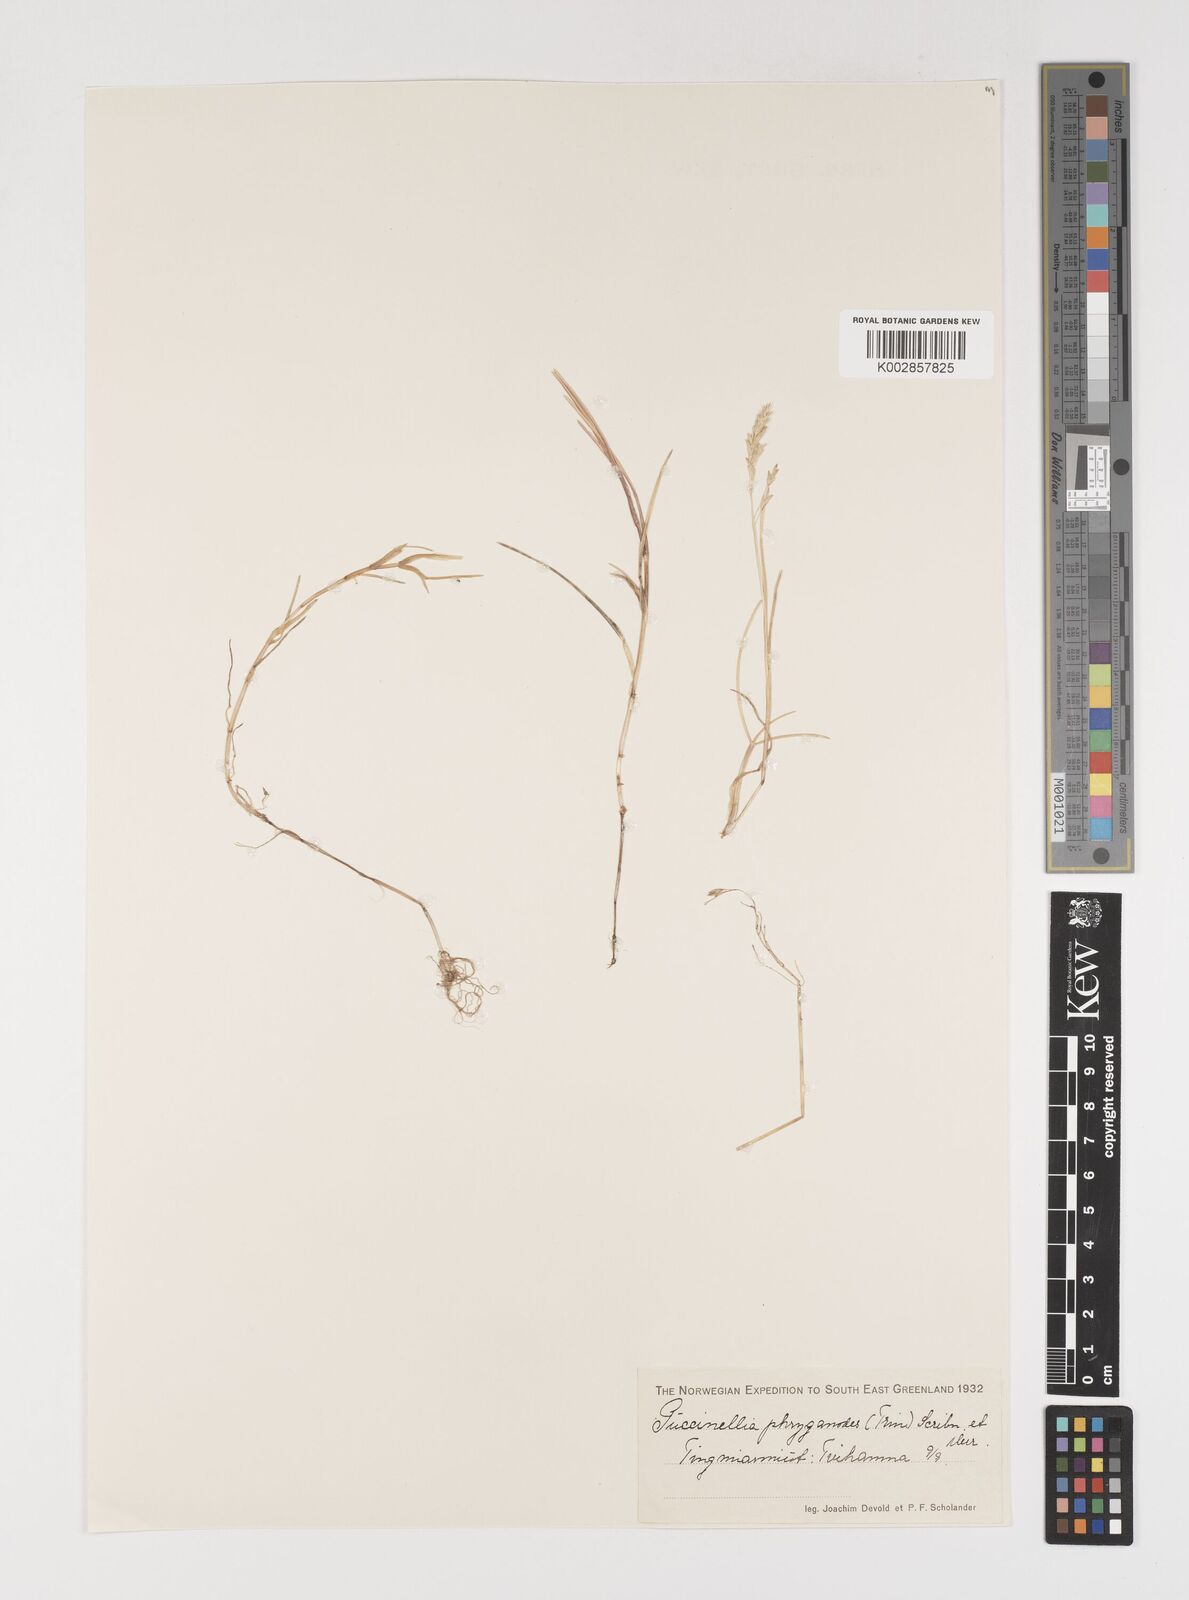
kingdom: Plantae
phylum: Tracheophyta
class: Liliopsida
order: Poales
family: Poaceae
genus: Puccinellia
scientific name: Puccinellia phryganodes
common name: Creeping alkaligrass
